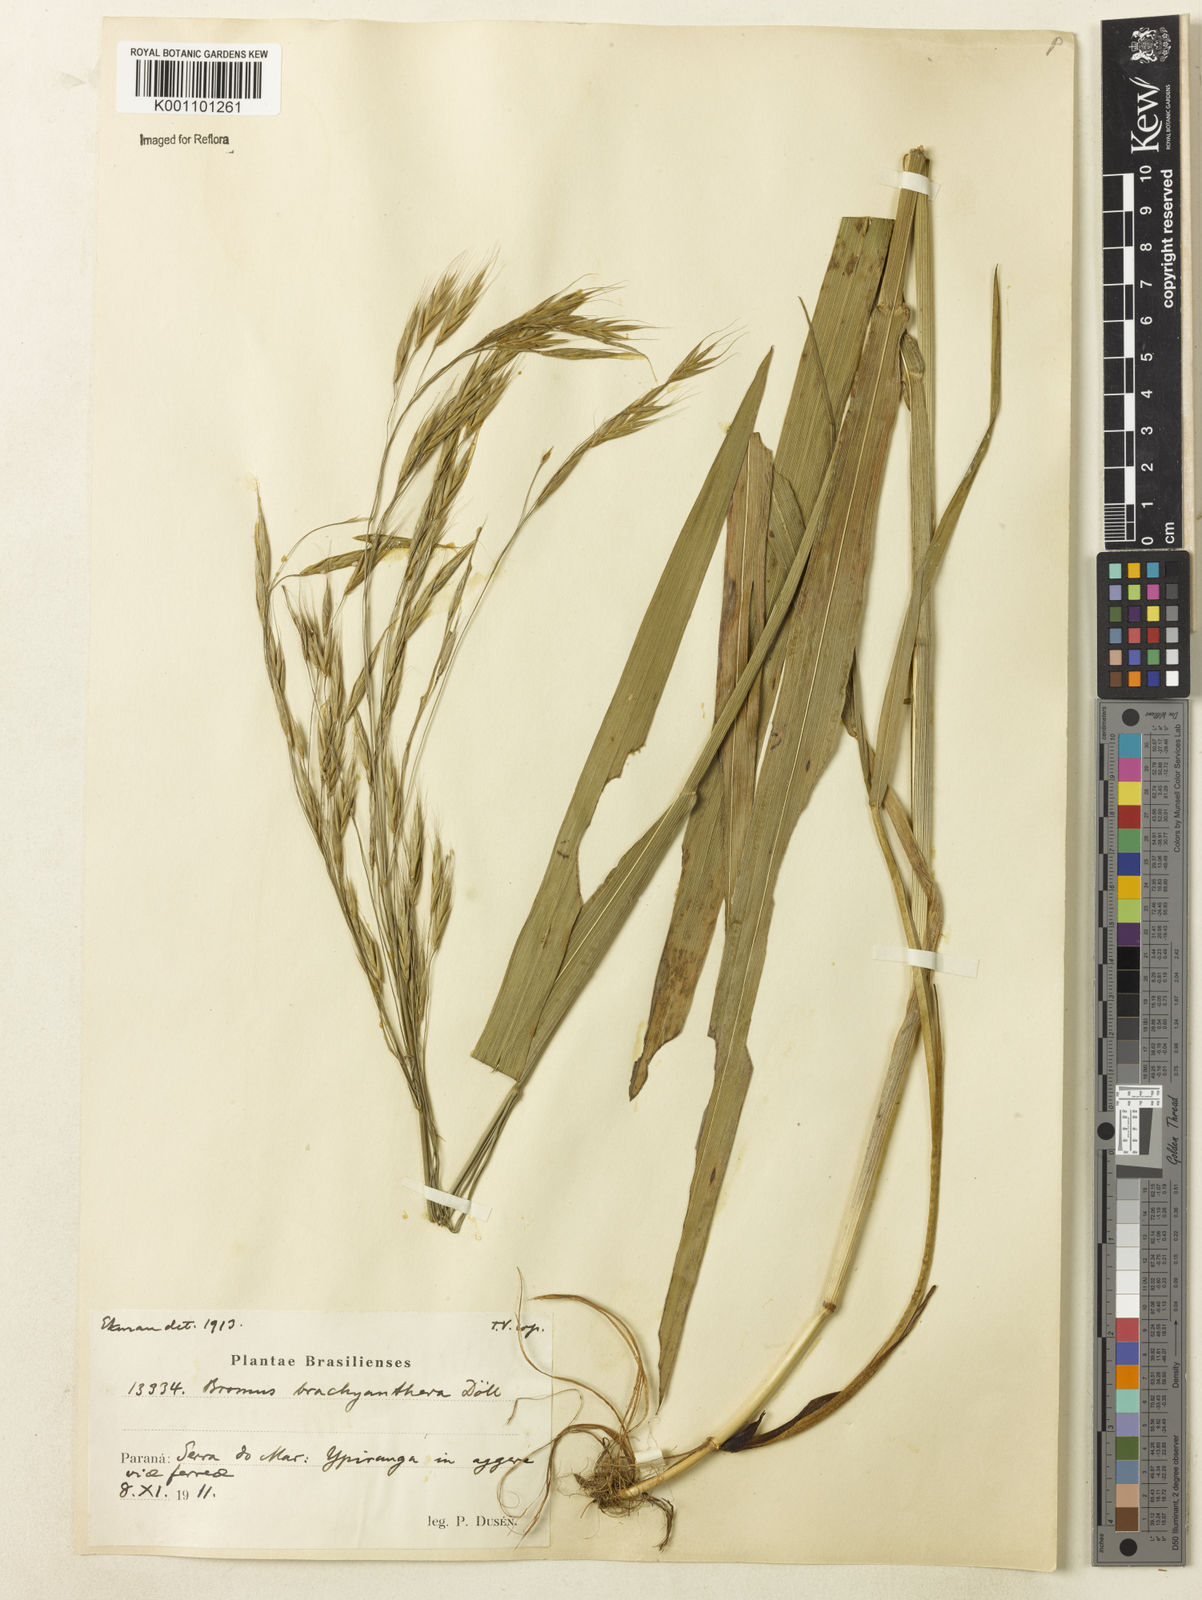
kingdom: Plantae
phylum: Tracheophyta
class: Liliopsida
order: Poales
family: Poaceae
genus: Bromus
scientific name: Bromus
